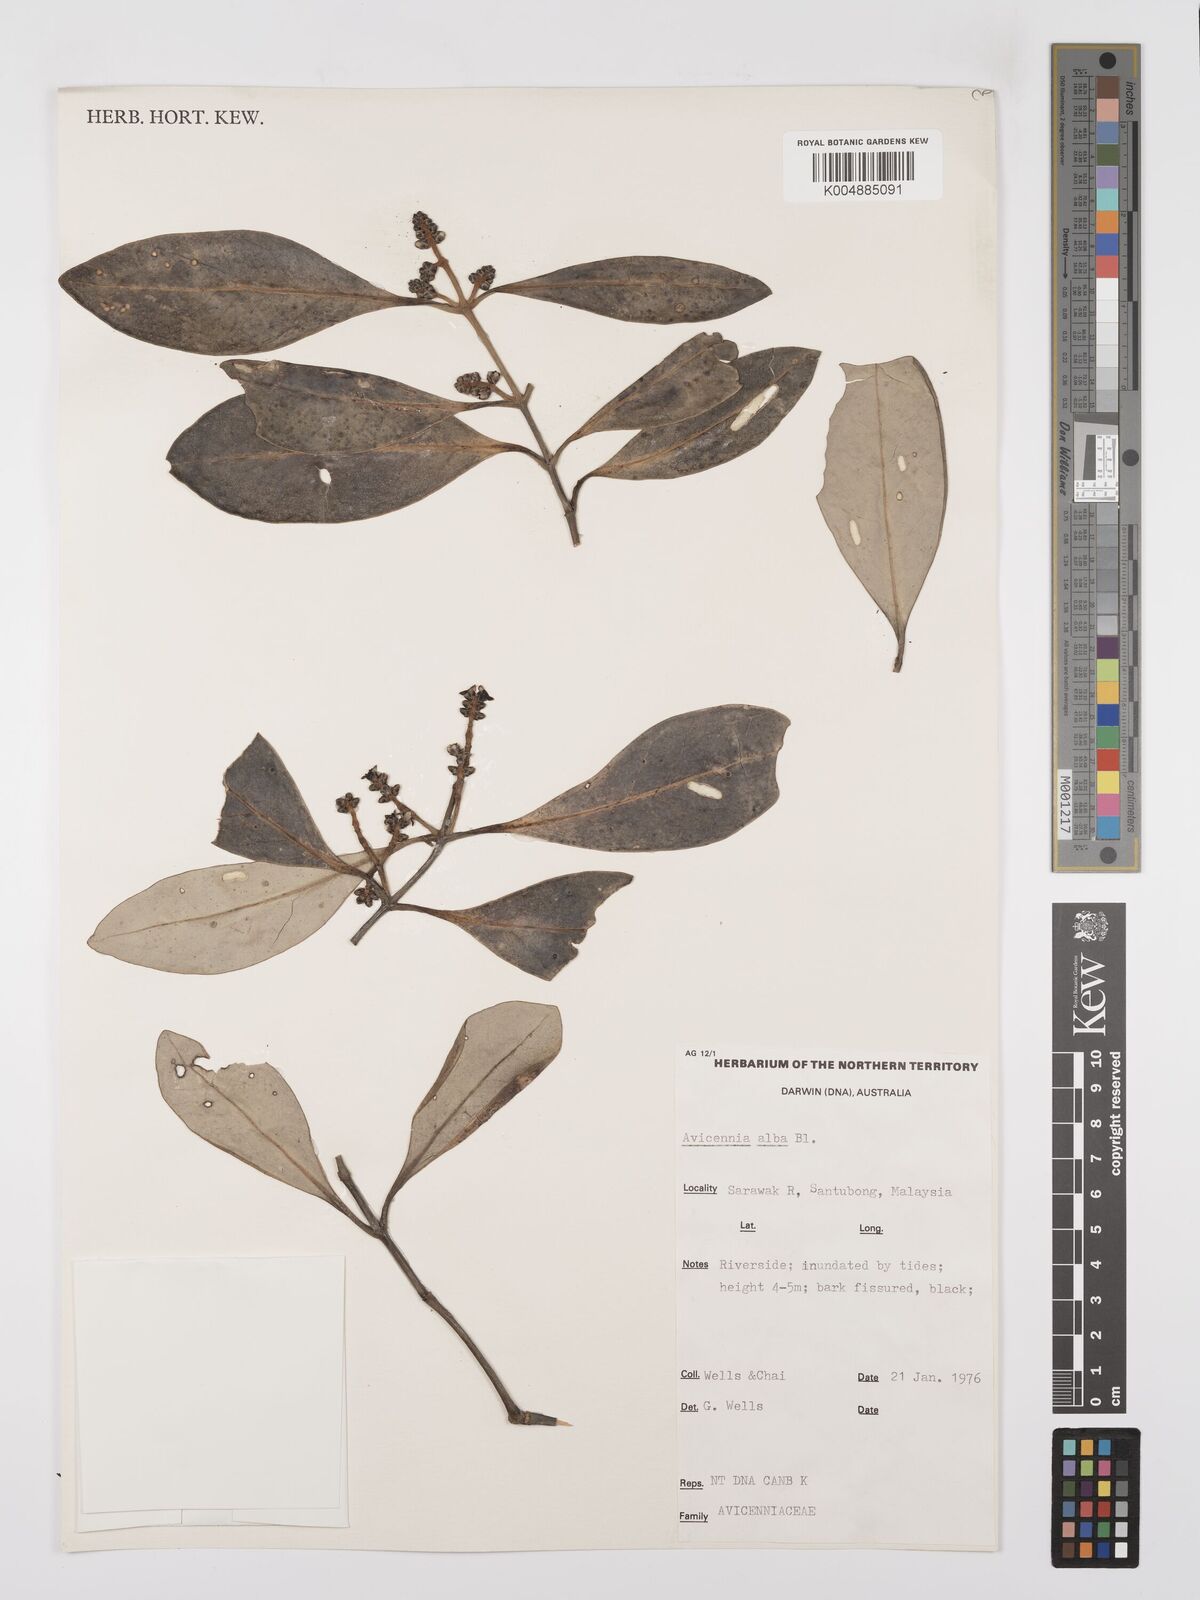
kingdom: Plantae
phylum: Tracheophyta
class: Magnoliopsida
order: Lamiales
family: Acanthaceae
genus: Avicennia
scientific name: Avicennia alba
